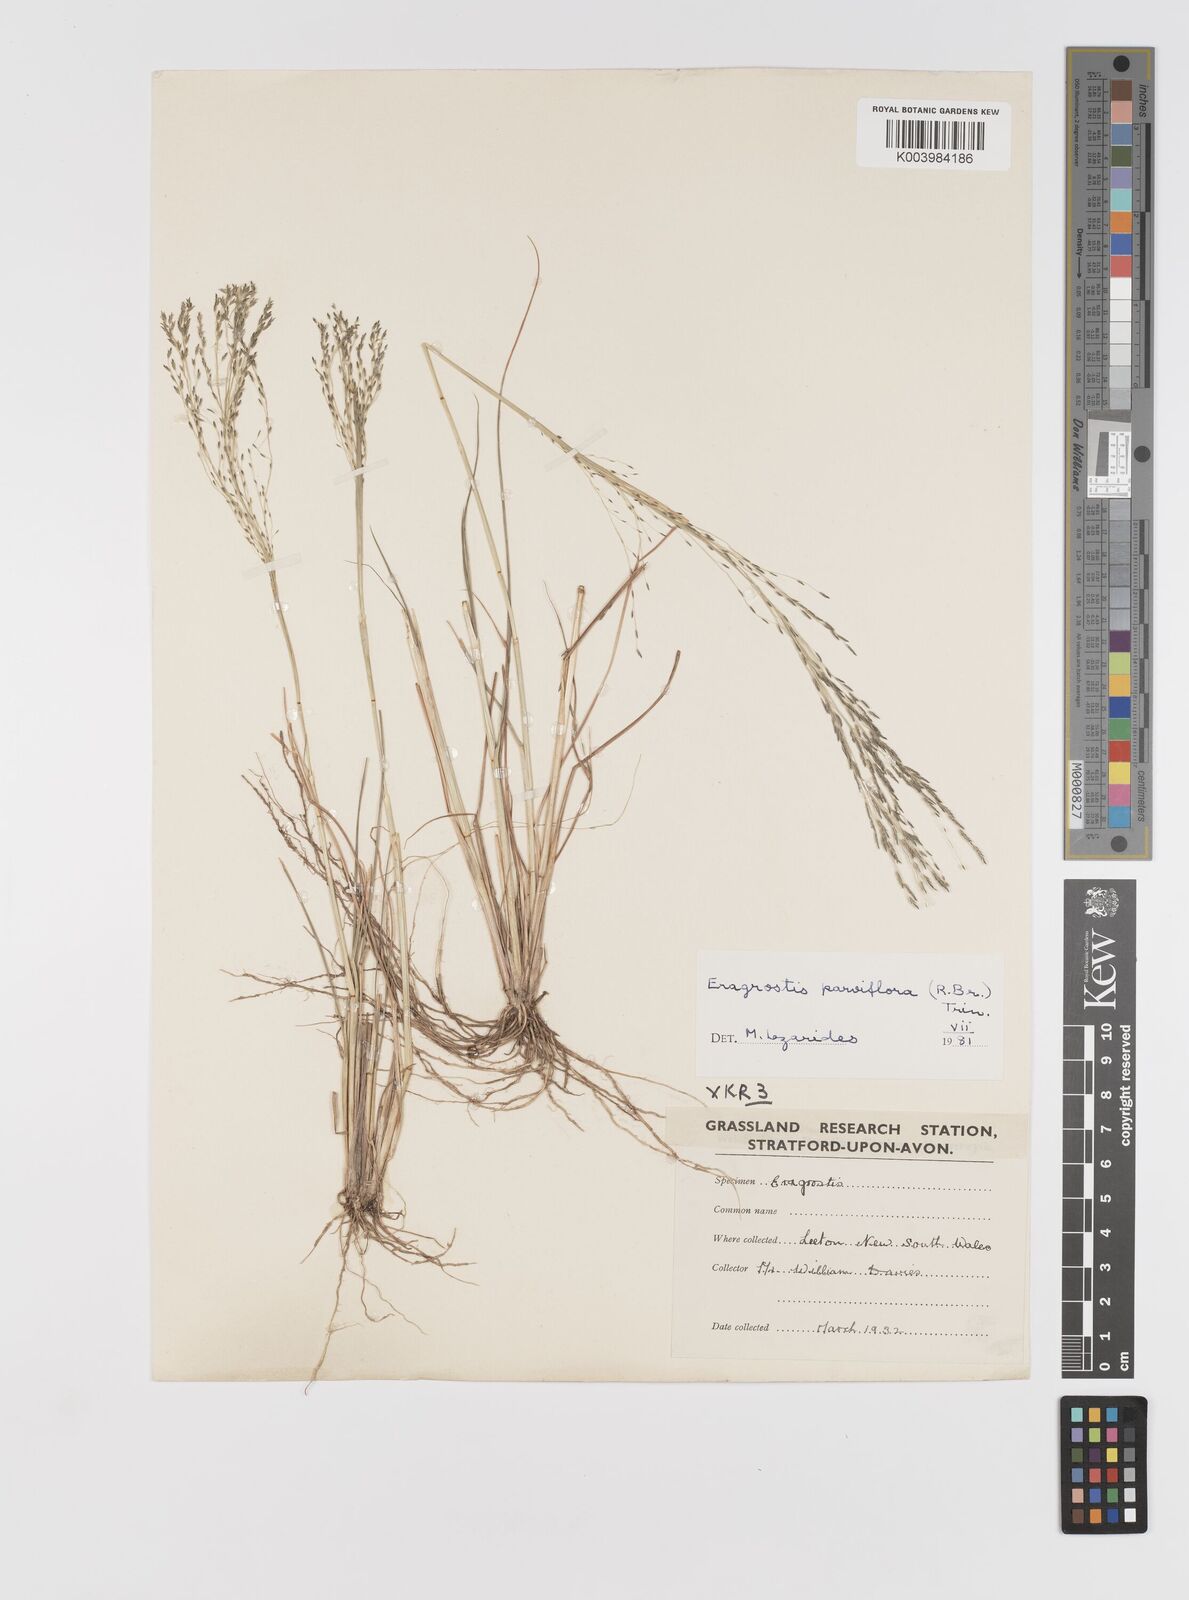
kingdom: Plantae
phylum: Tracheophyta
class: Liliopsida
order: Poales
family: Poaceae
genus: Eragrostis
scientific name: Eragrostis parviflora
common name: Weeping love-grass
